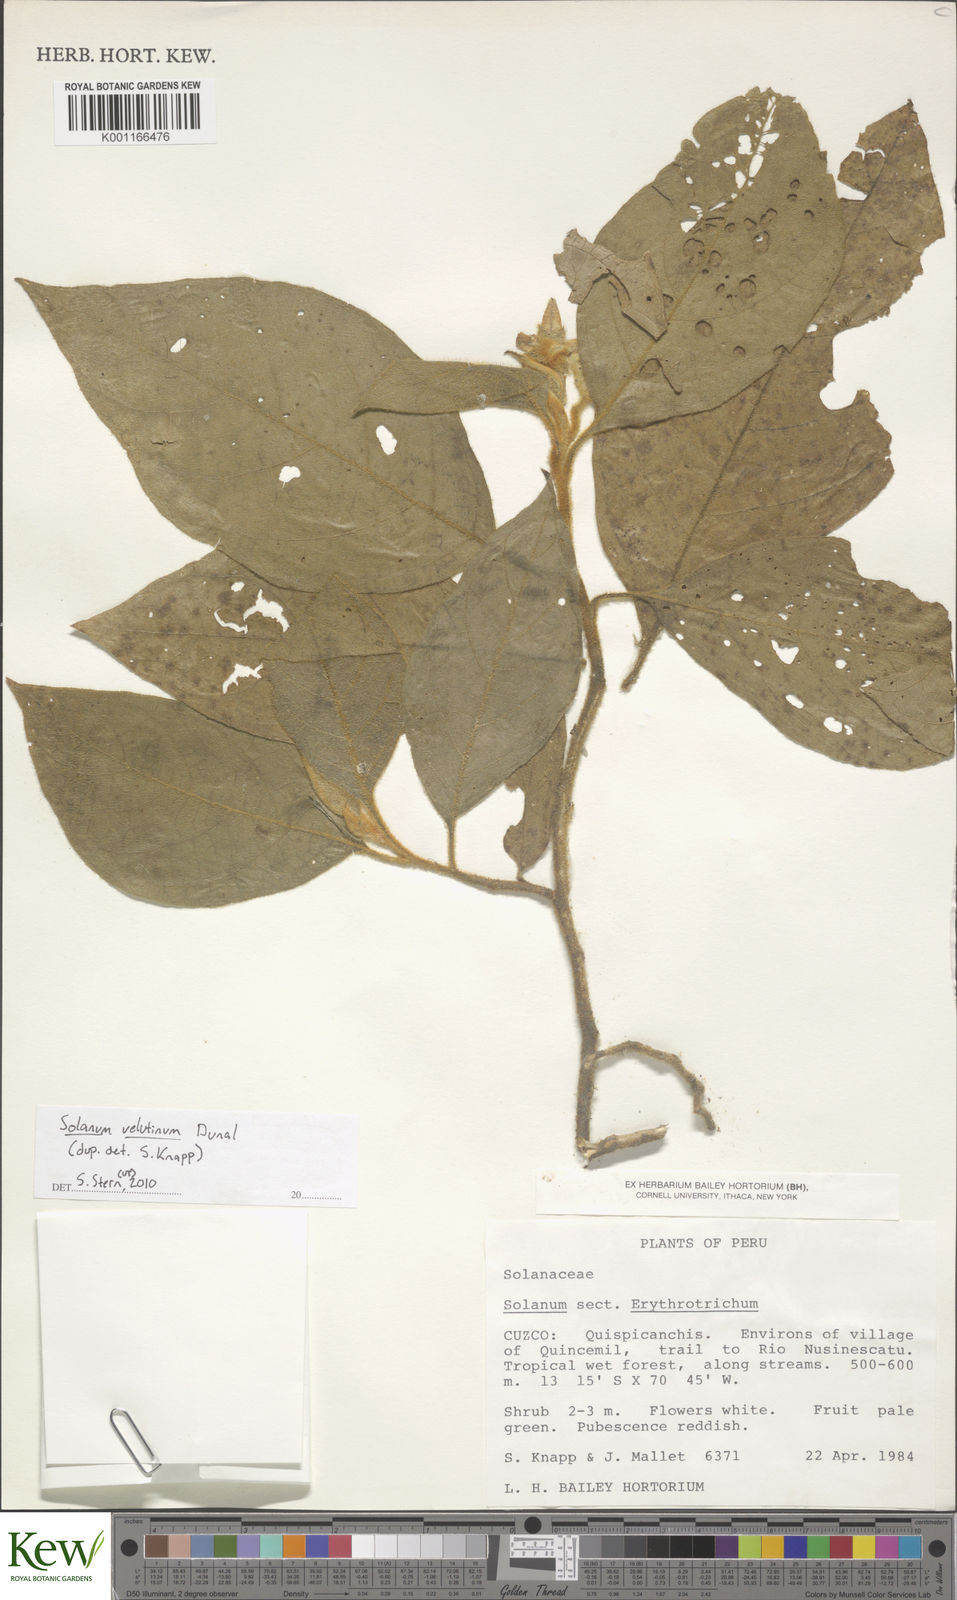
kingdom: Plantae
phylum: Tracheophyta
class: Magnoliopsida
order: Solanales
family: Solanaceae
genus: Solanum
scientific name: Solanum velutinum
